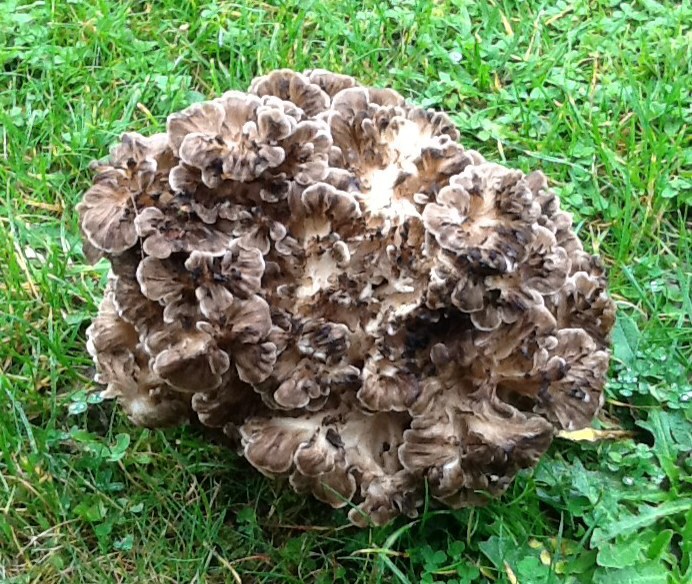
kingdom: Fungi
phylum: Basidiomycota
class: Agaricomycetes
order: Polyporales
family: Grifolaceae
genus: Grifola
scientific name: Grifola frondosa
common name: tueporesvamp
